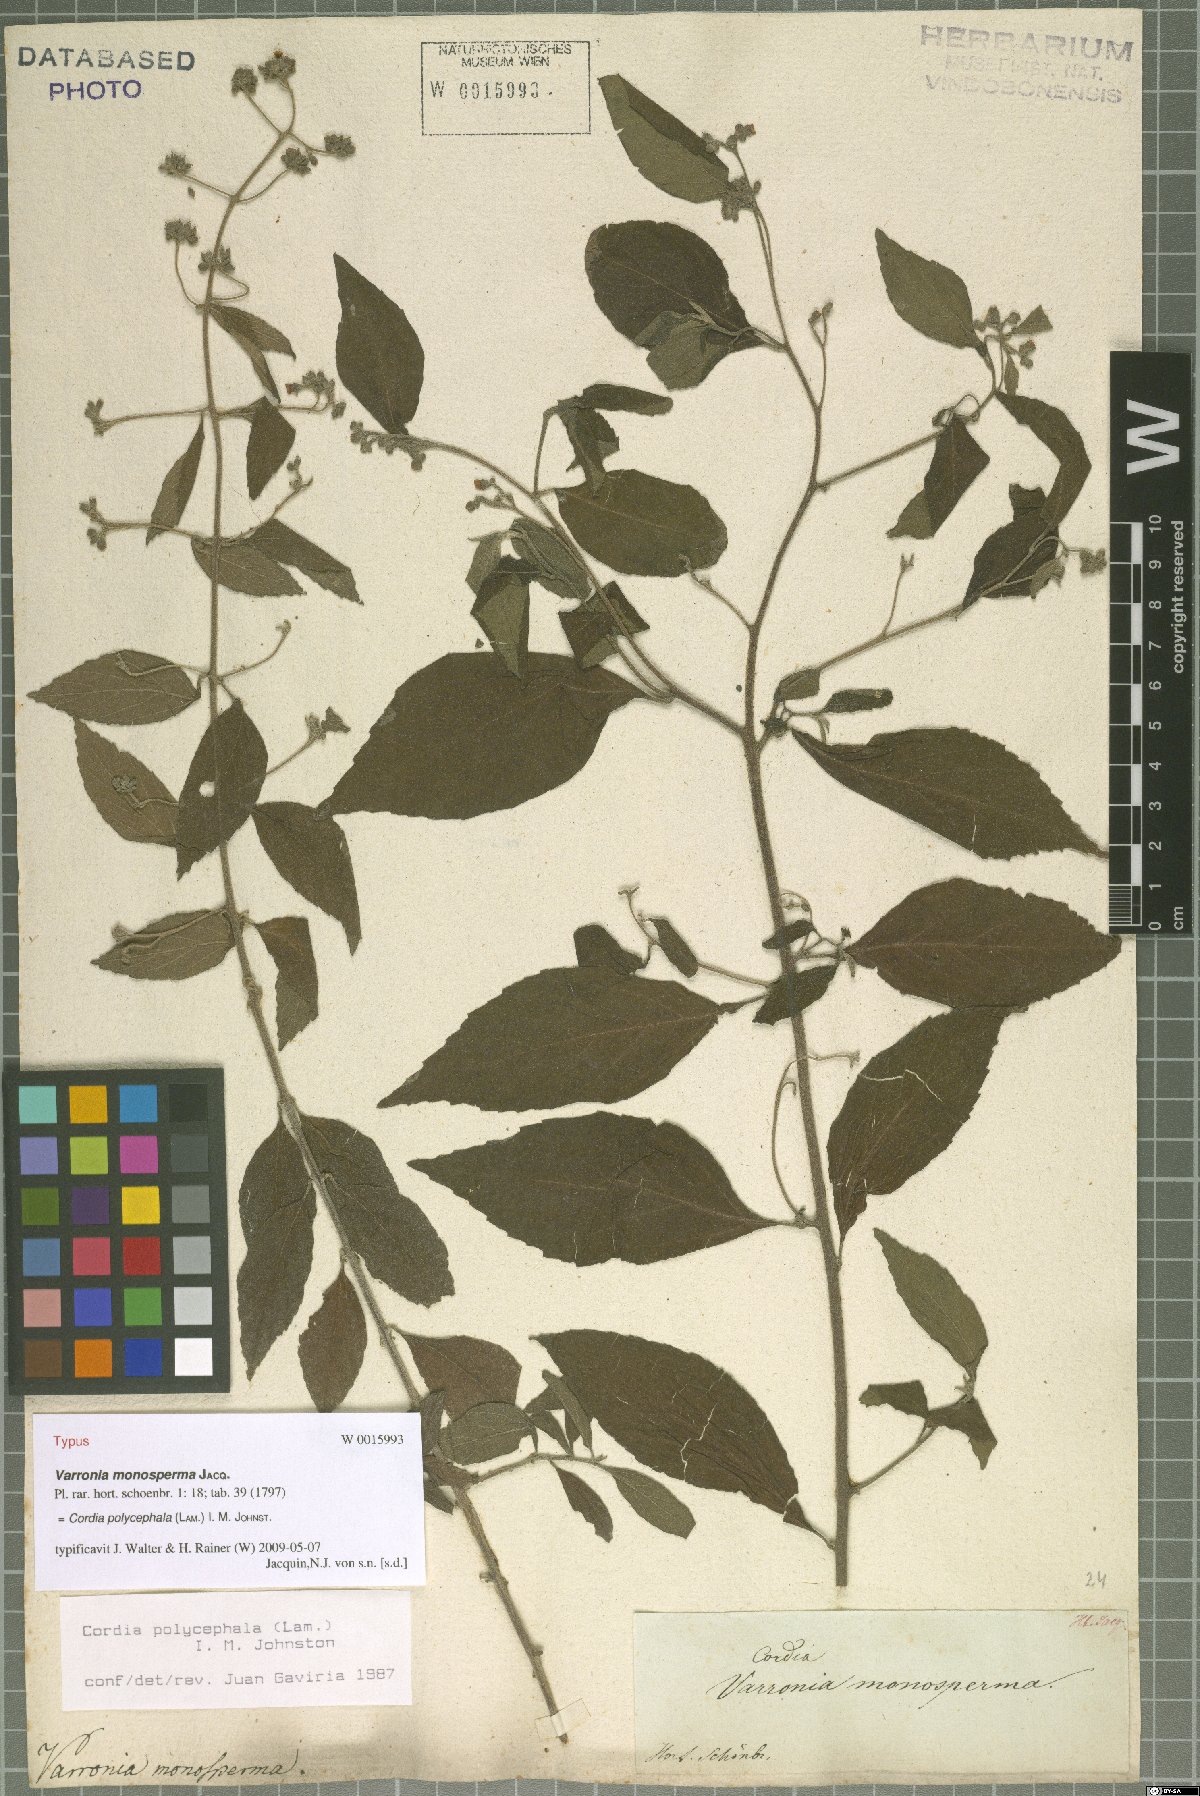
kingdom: Plantae
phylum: Tracheophyta
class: Magnoliopsida
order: Boraginales
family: Cordiaceae
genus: Varronia
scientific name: Varronia polycephala
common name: Black-sage
